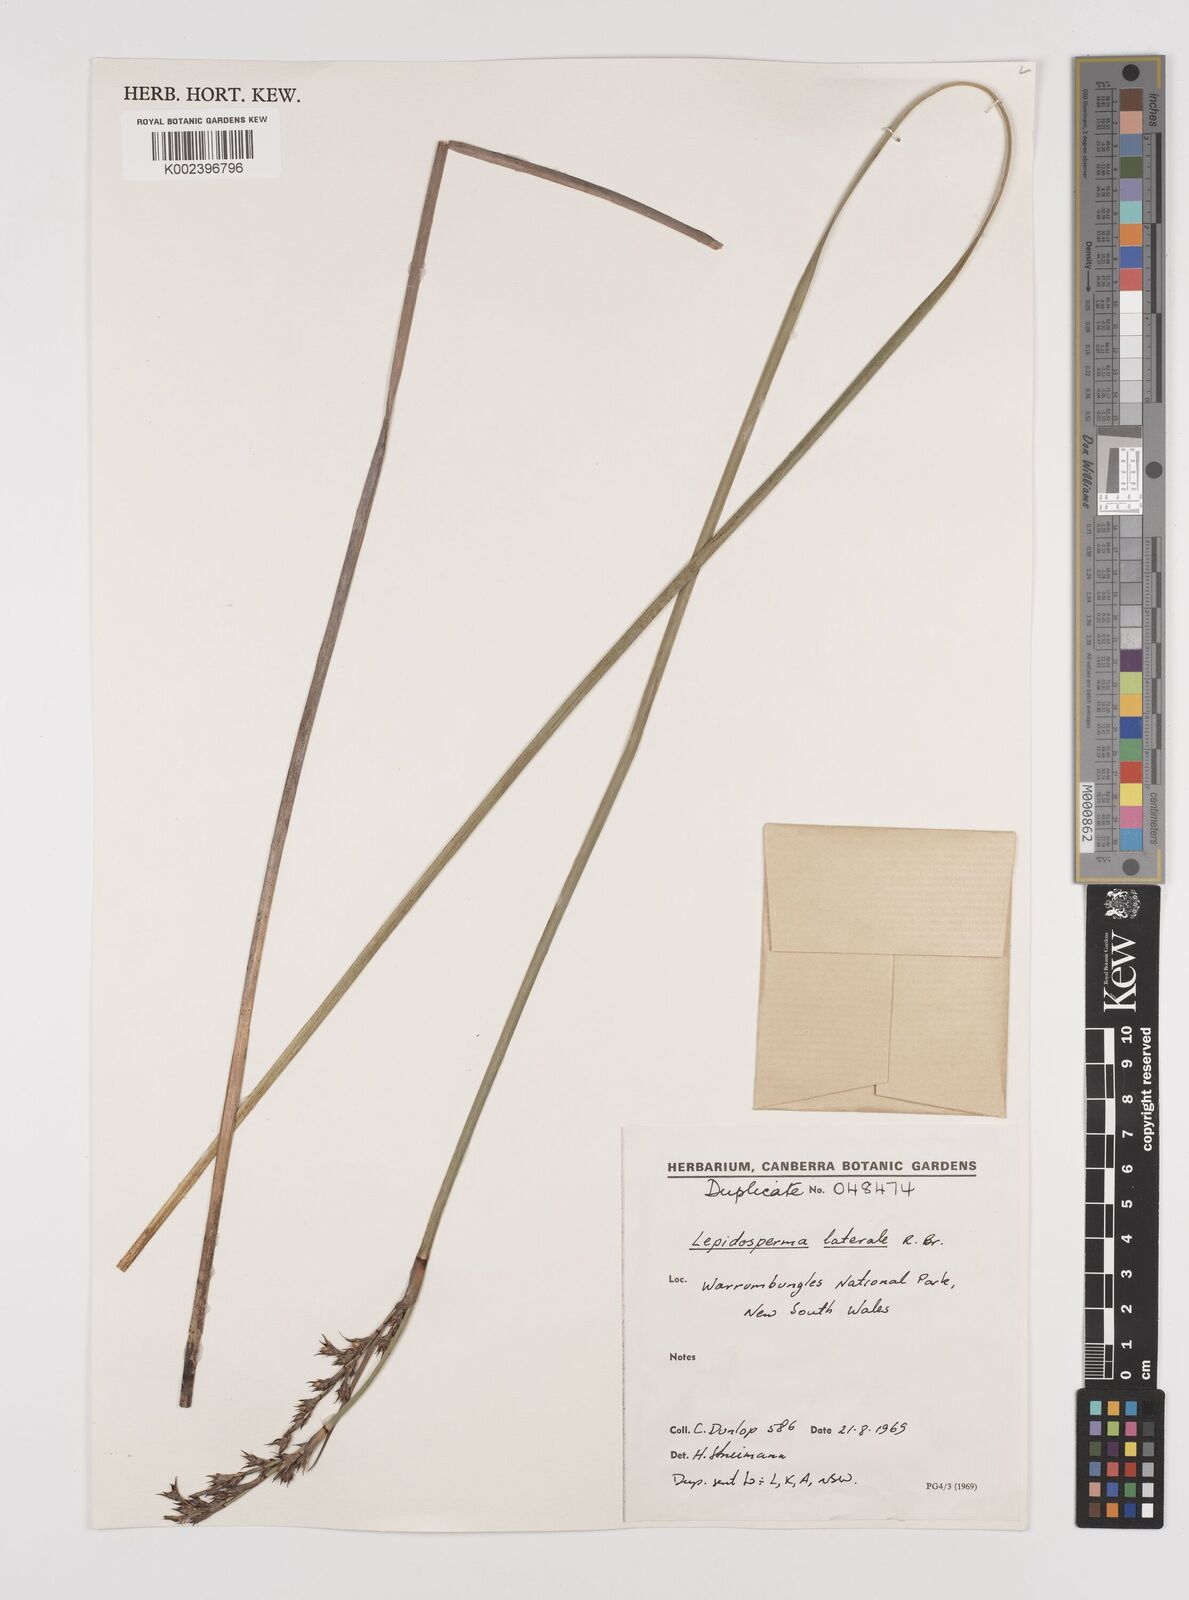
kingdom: Plantae
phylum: Tracheophyta
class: Liliopsida
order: Poales
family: Cyperaceae
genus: Lepidosperma
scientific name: Lepidosperma laterale
